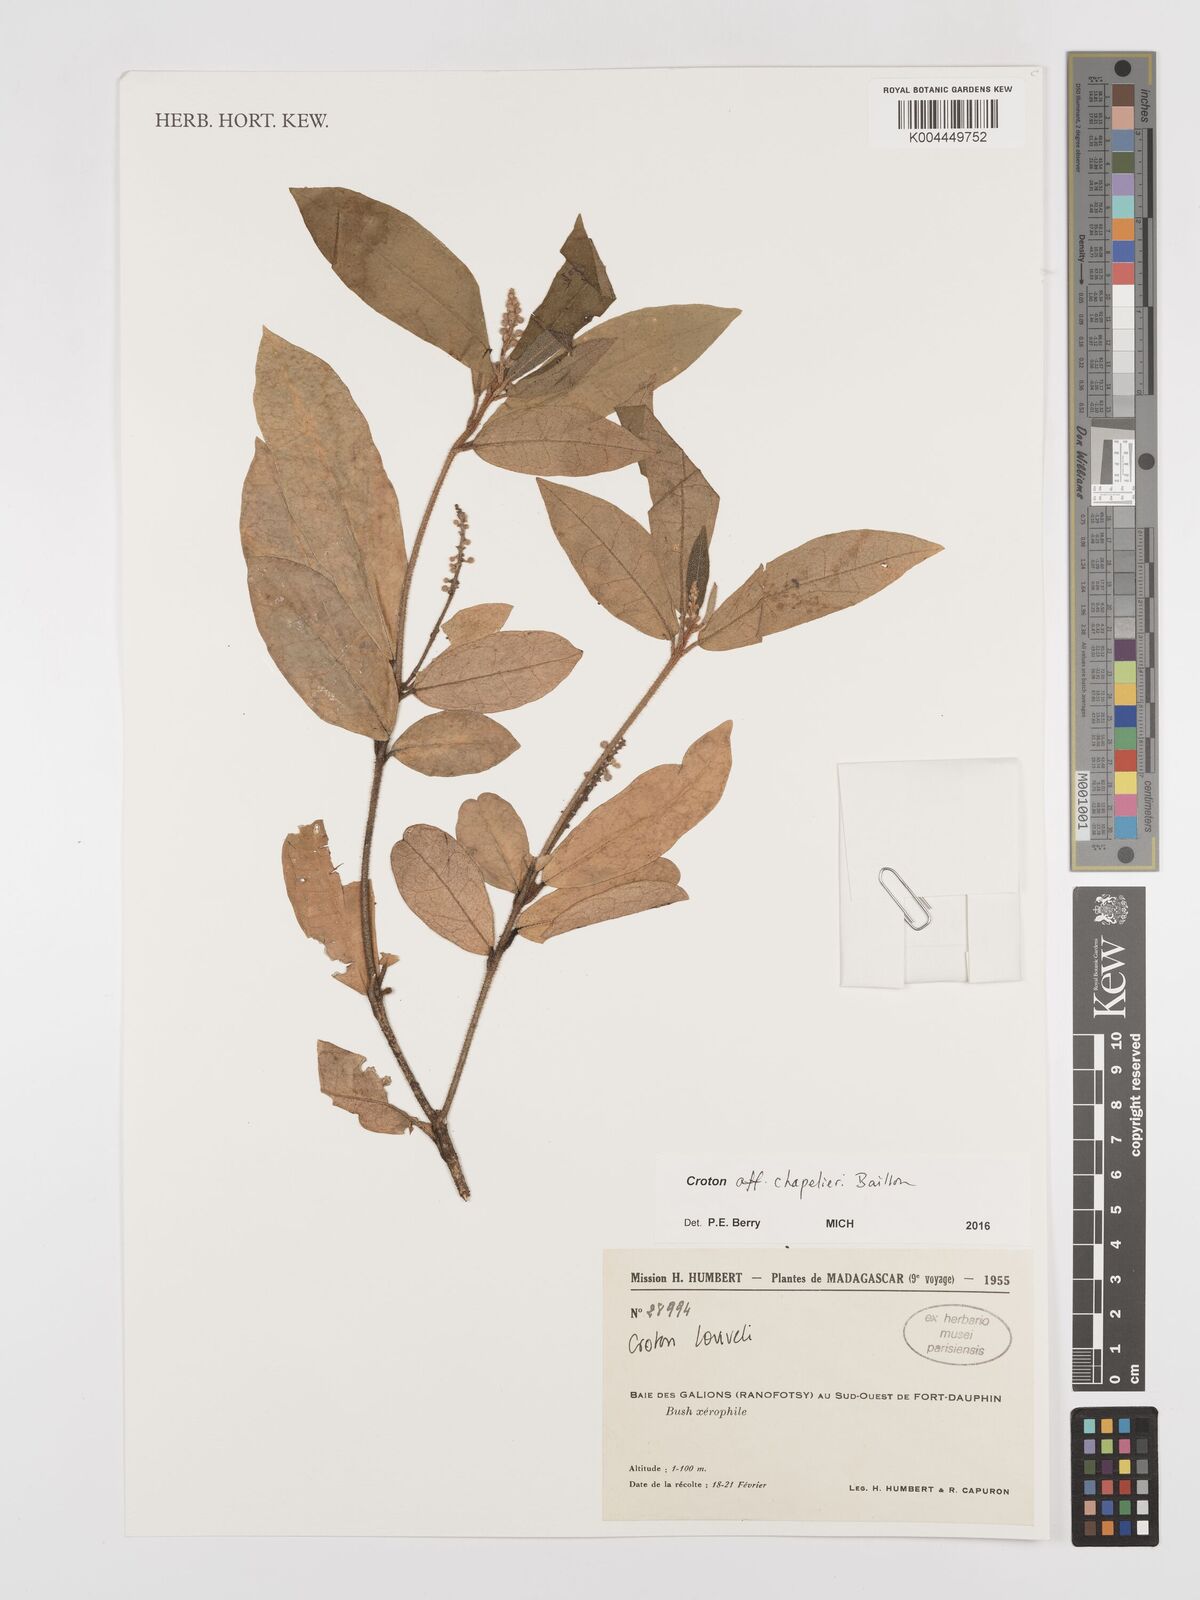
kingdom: Plantae
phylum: Tracheophyta
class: Magnoliopsida
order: Malpighiales
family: Euphorbiaceae
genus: Croton
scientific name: Croton chapelieri
